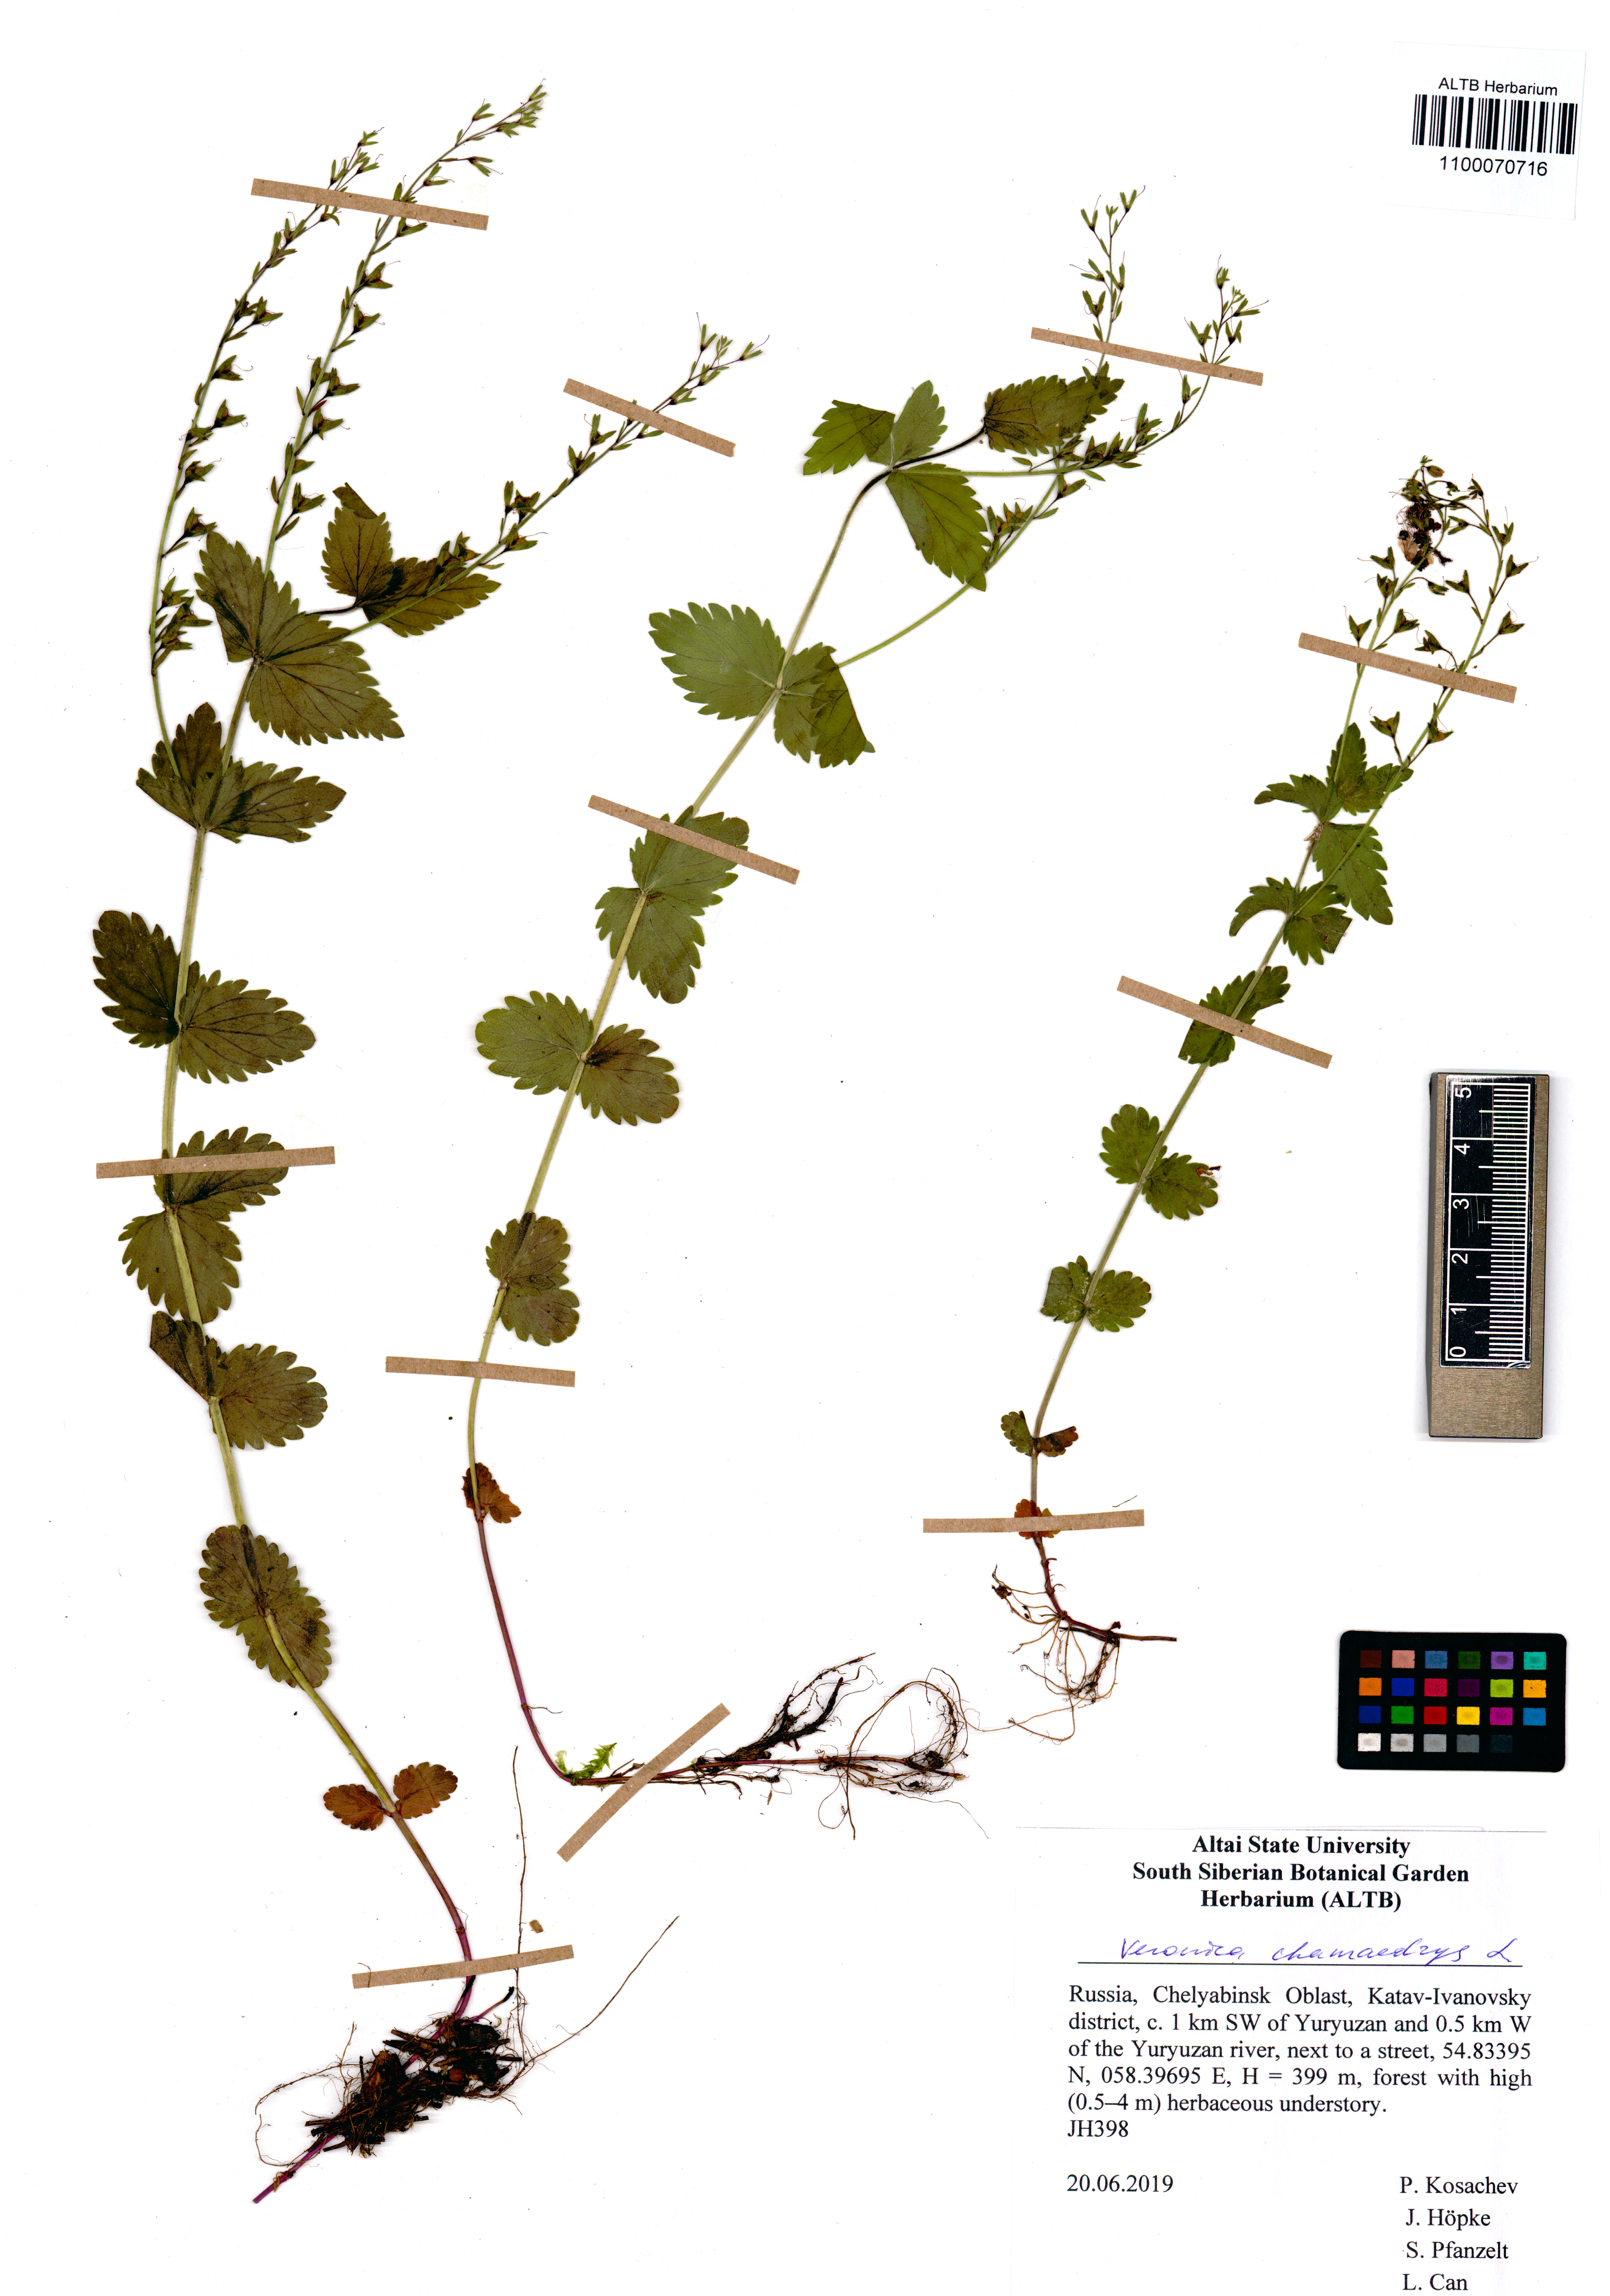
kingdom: Plantae
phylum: Tracheophyta
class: Magnoliopsida
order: Lamiales
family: Plantaginaceae
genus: Veronica
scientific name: Veronica chamaedrys
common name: Germander speedwell
